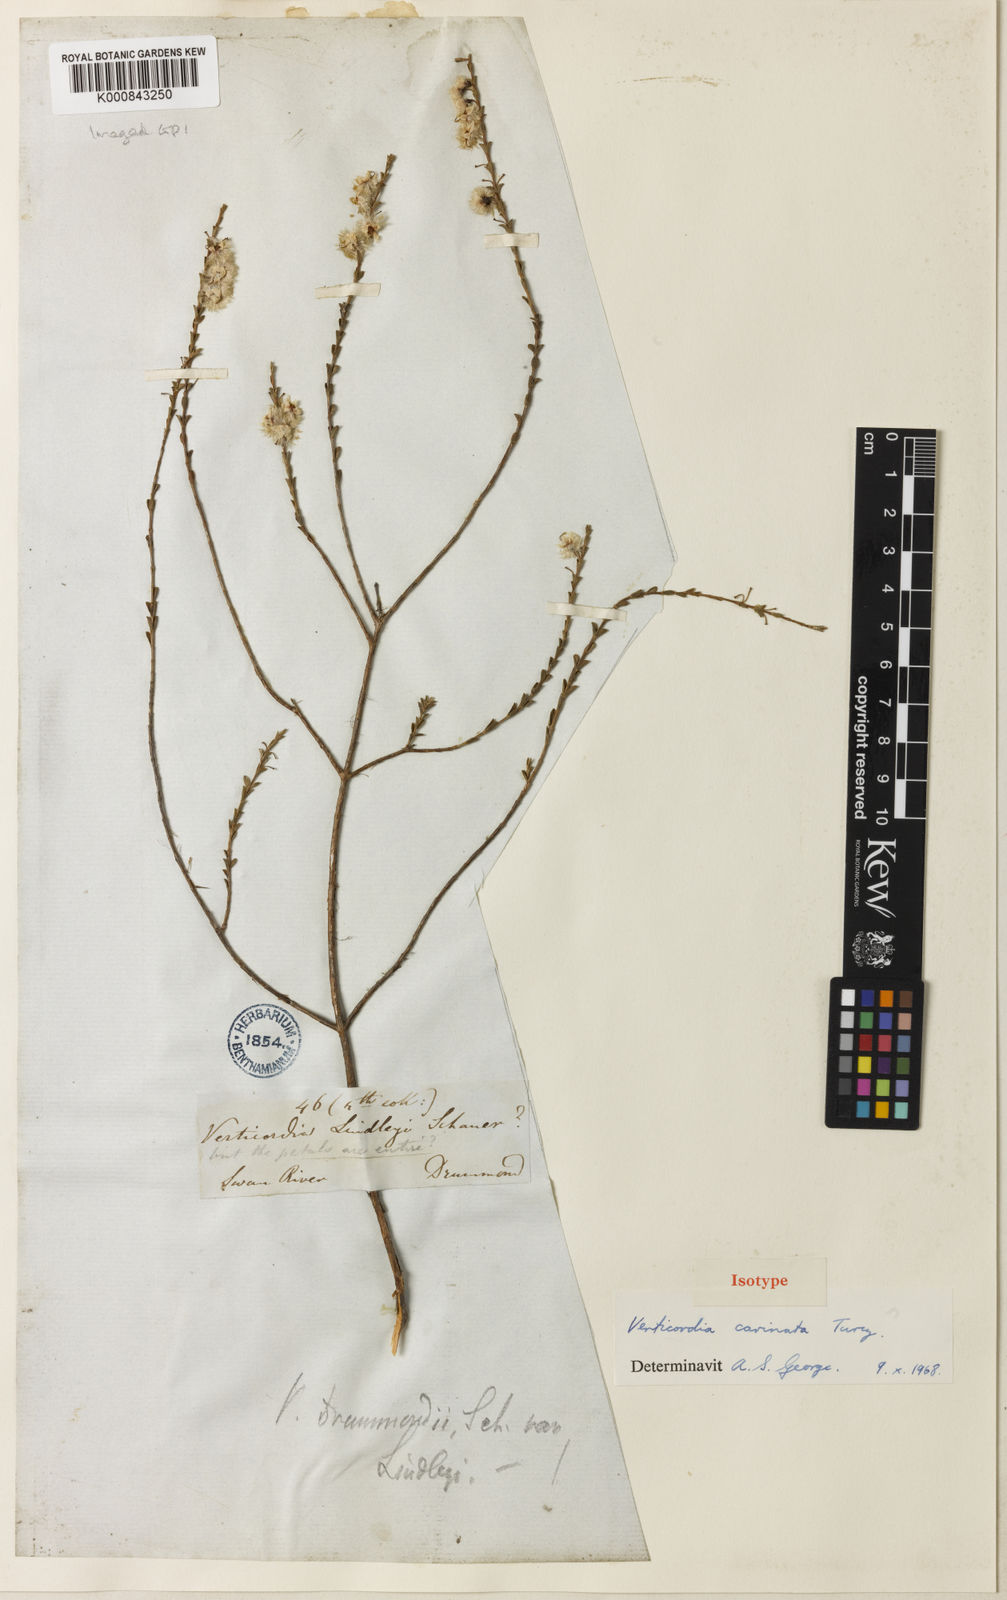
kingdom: Plantae
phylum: Tracheophyta
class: Magnoliopsida
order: Myrtales
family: Myrtaceae
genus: Verticordia
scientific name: Verticordia carinata
